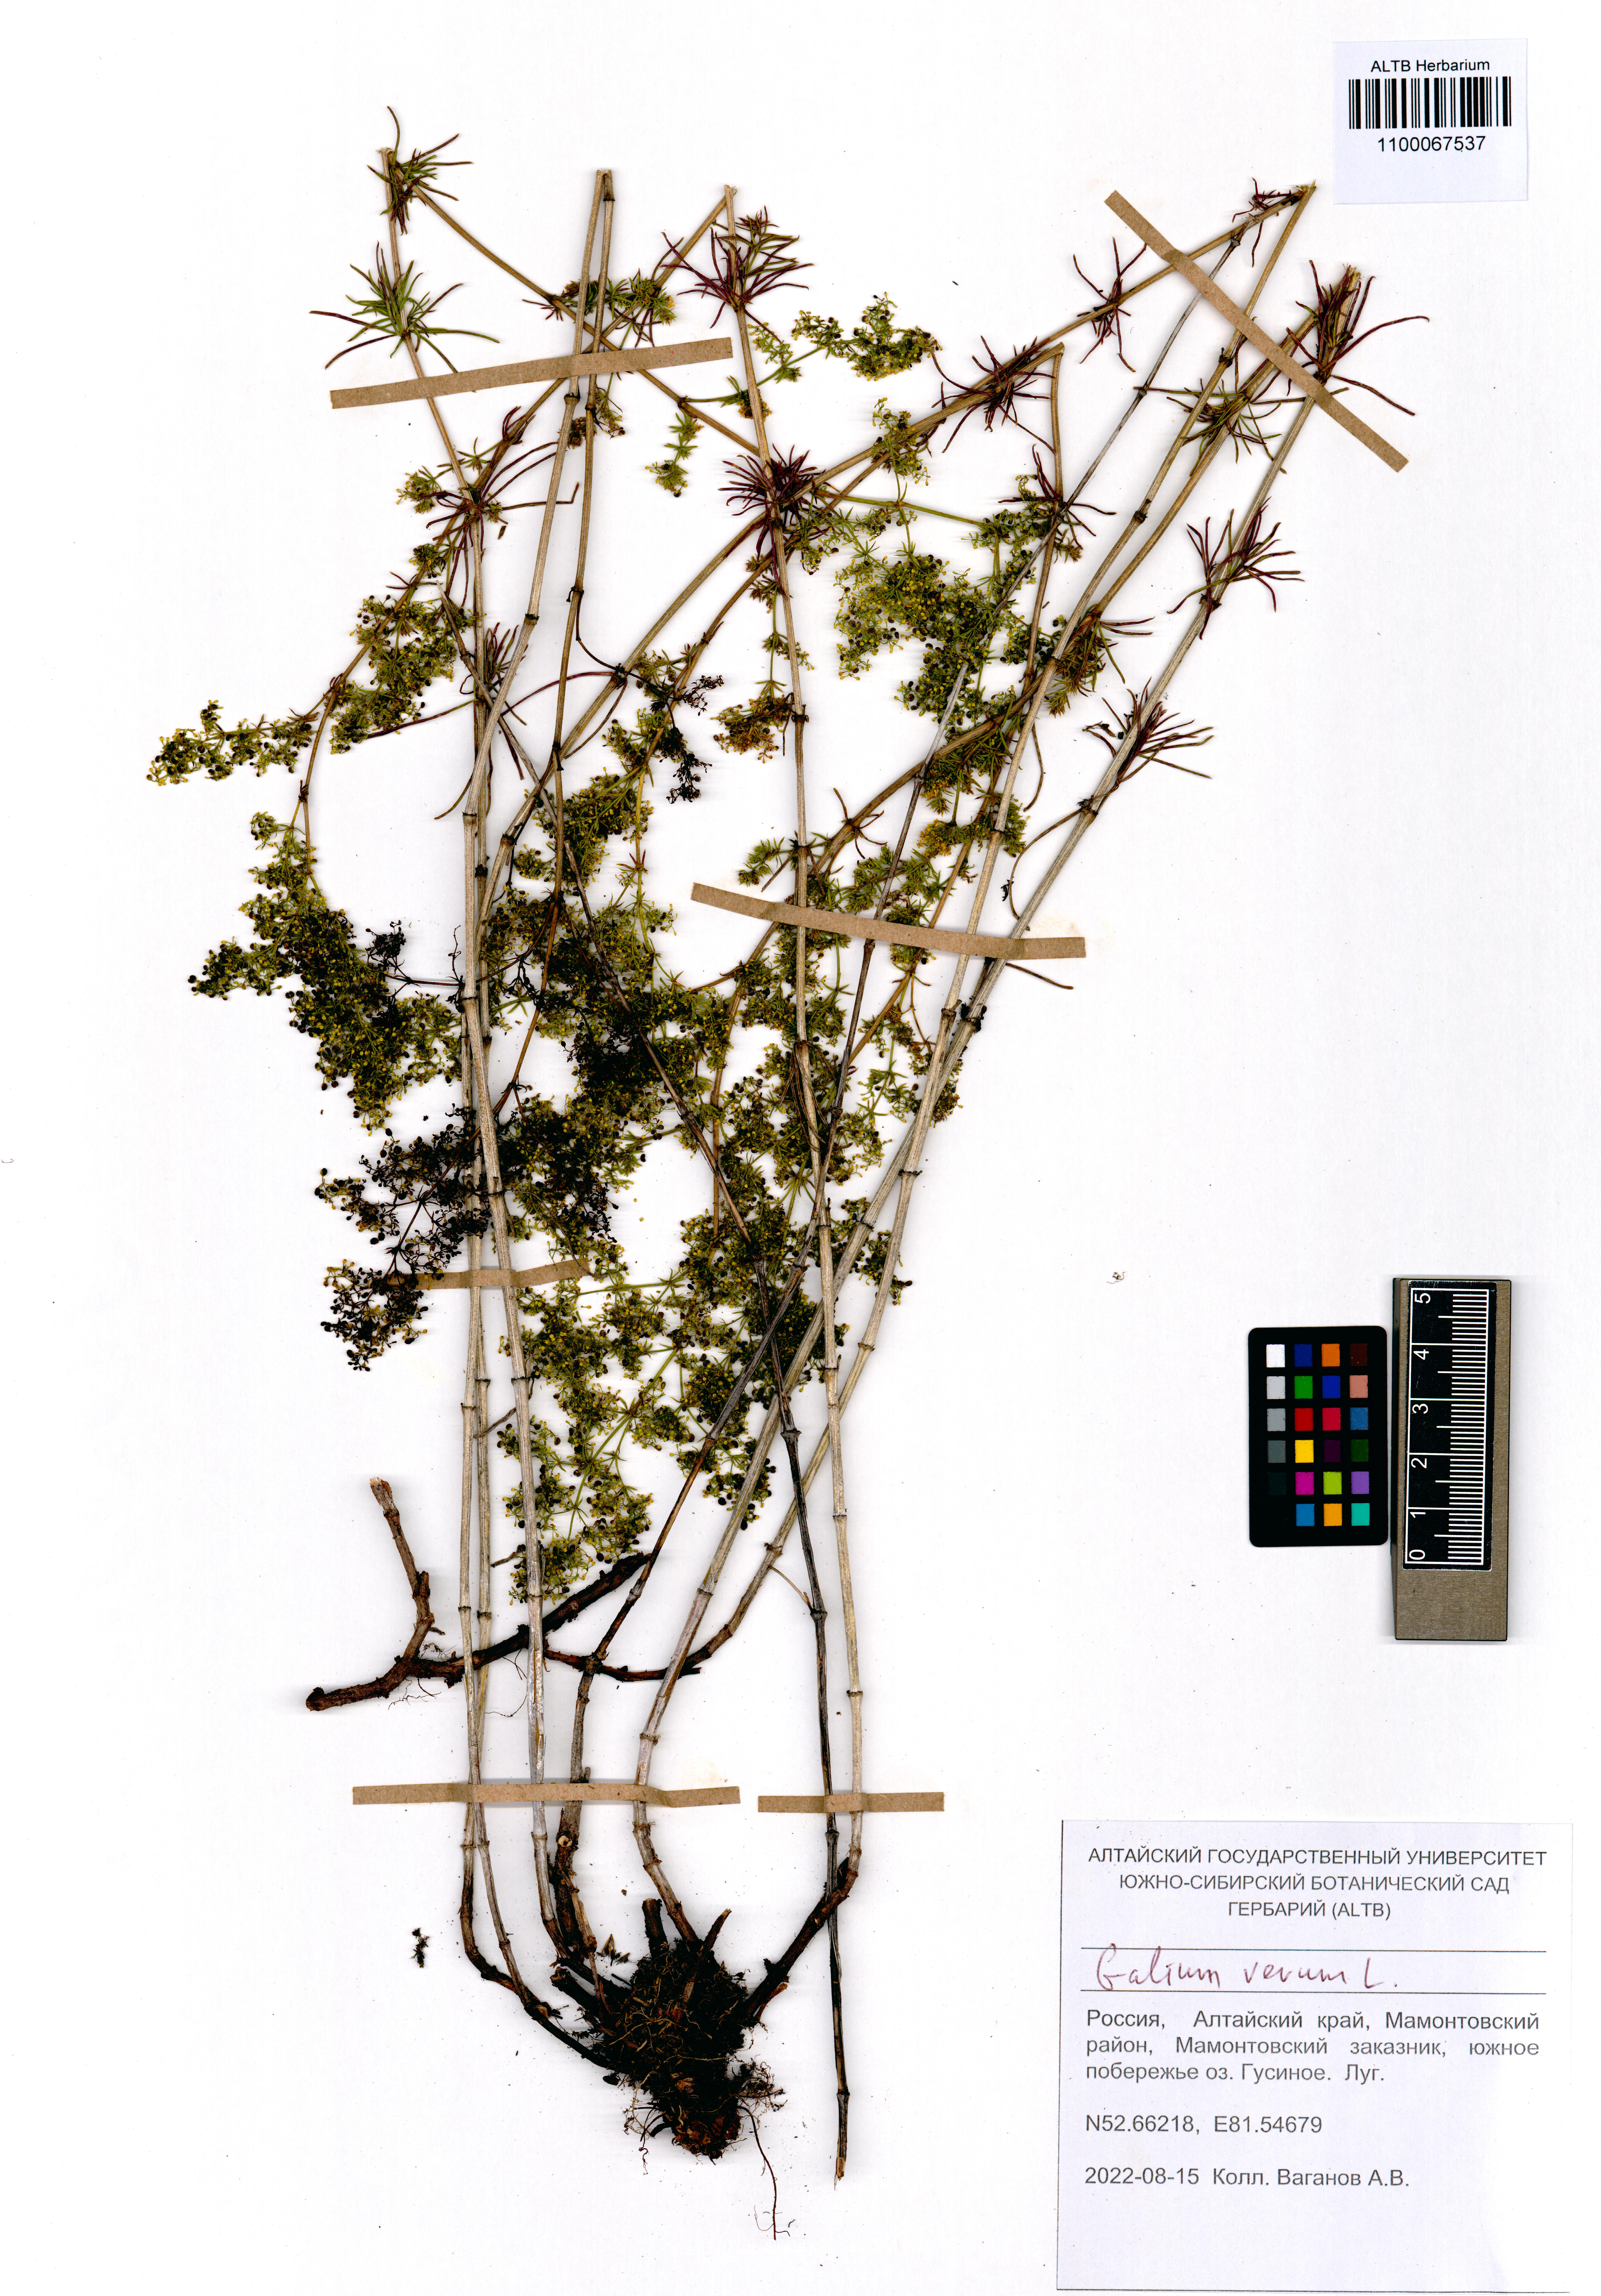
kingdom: Plantae
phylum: Tracheophyta
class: Magnoliopsida
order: Gentianales
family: Rubiaceae
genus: Galium
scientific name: Galium verum
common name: Lady's bedstraw
